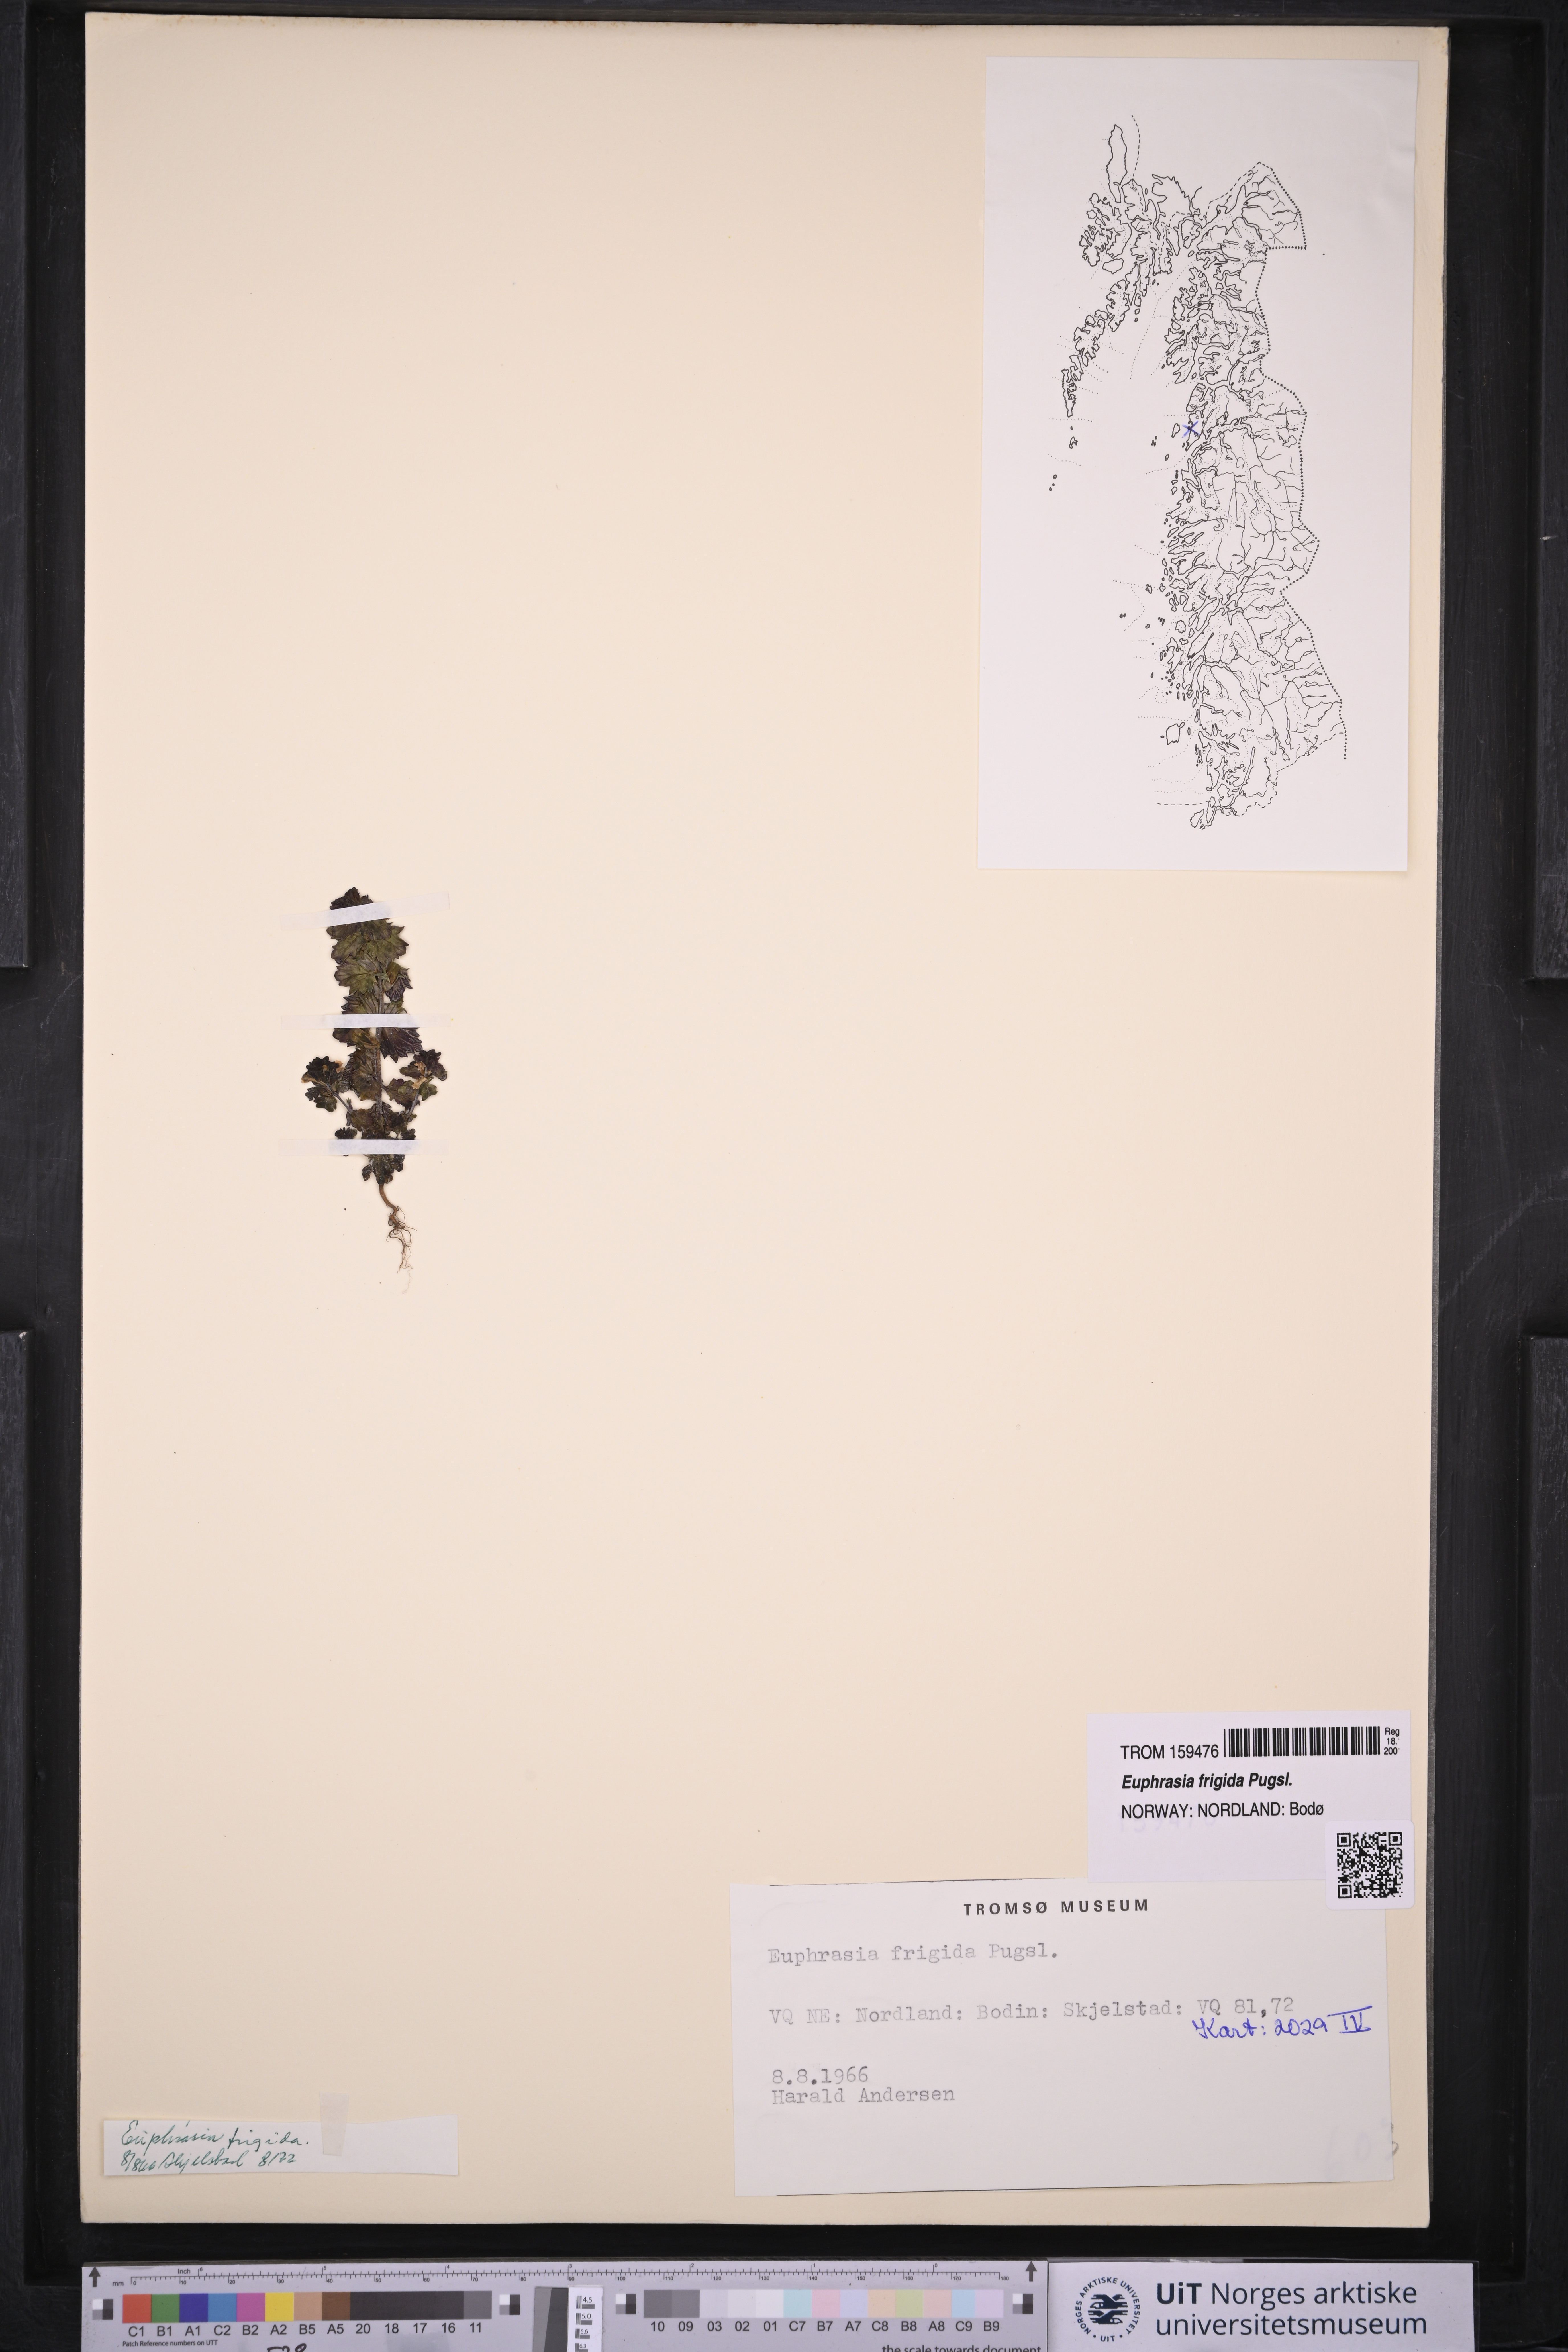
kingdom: Plantae
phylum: Tracheophyta
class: Magnoliopsida
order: Lamiales
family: Orobanchaceae
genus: Euphrasia
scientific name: Euphrasia frigida
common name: An eyebright
